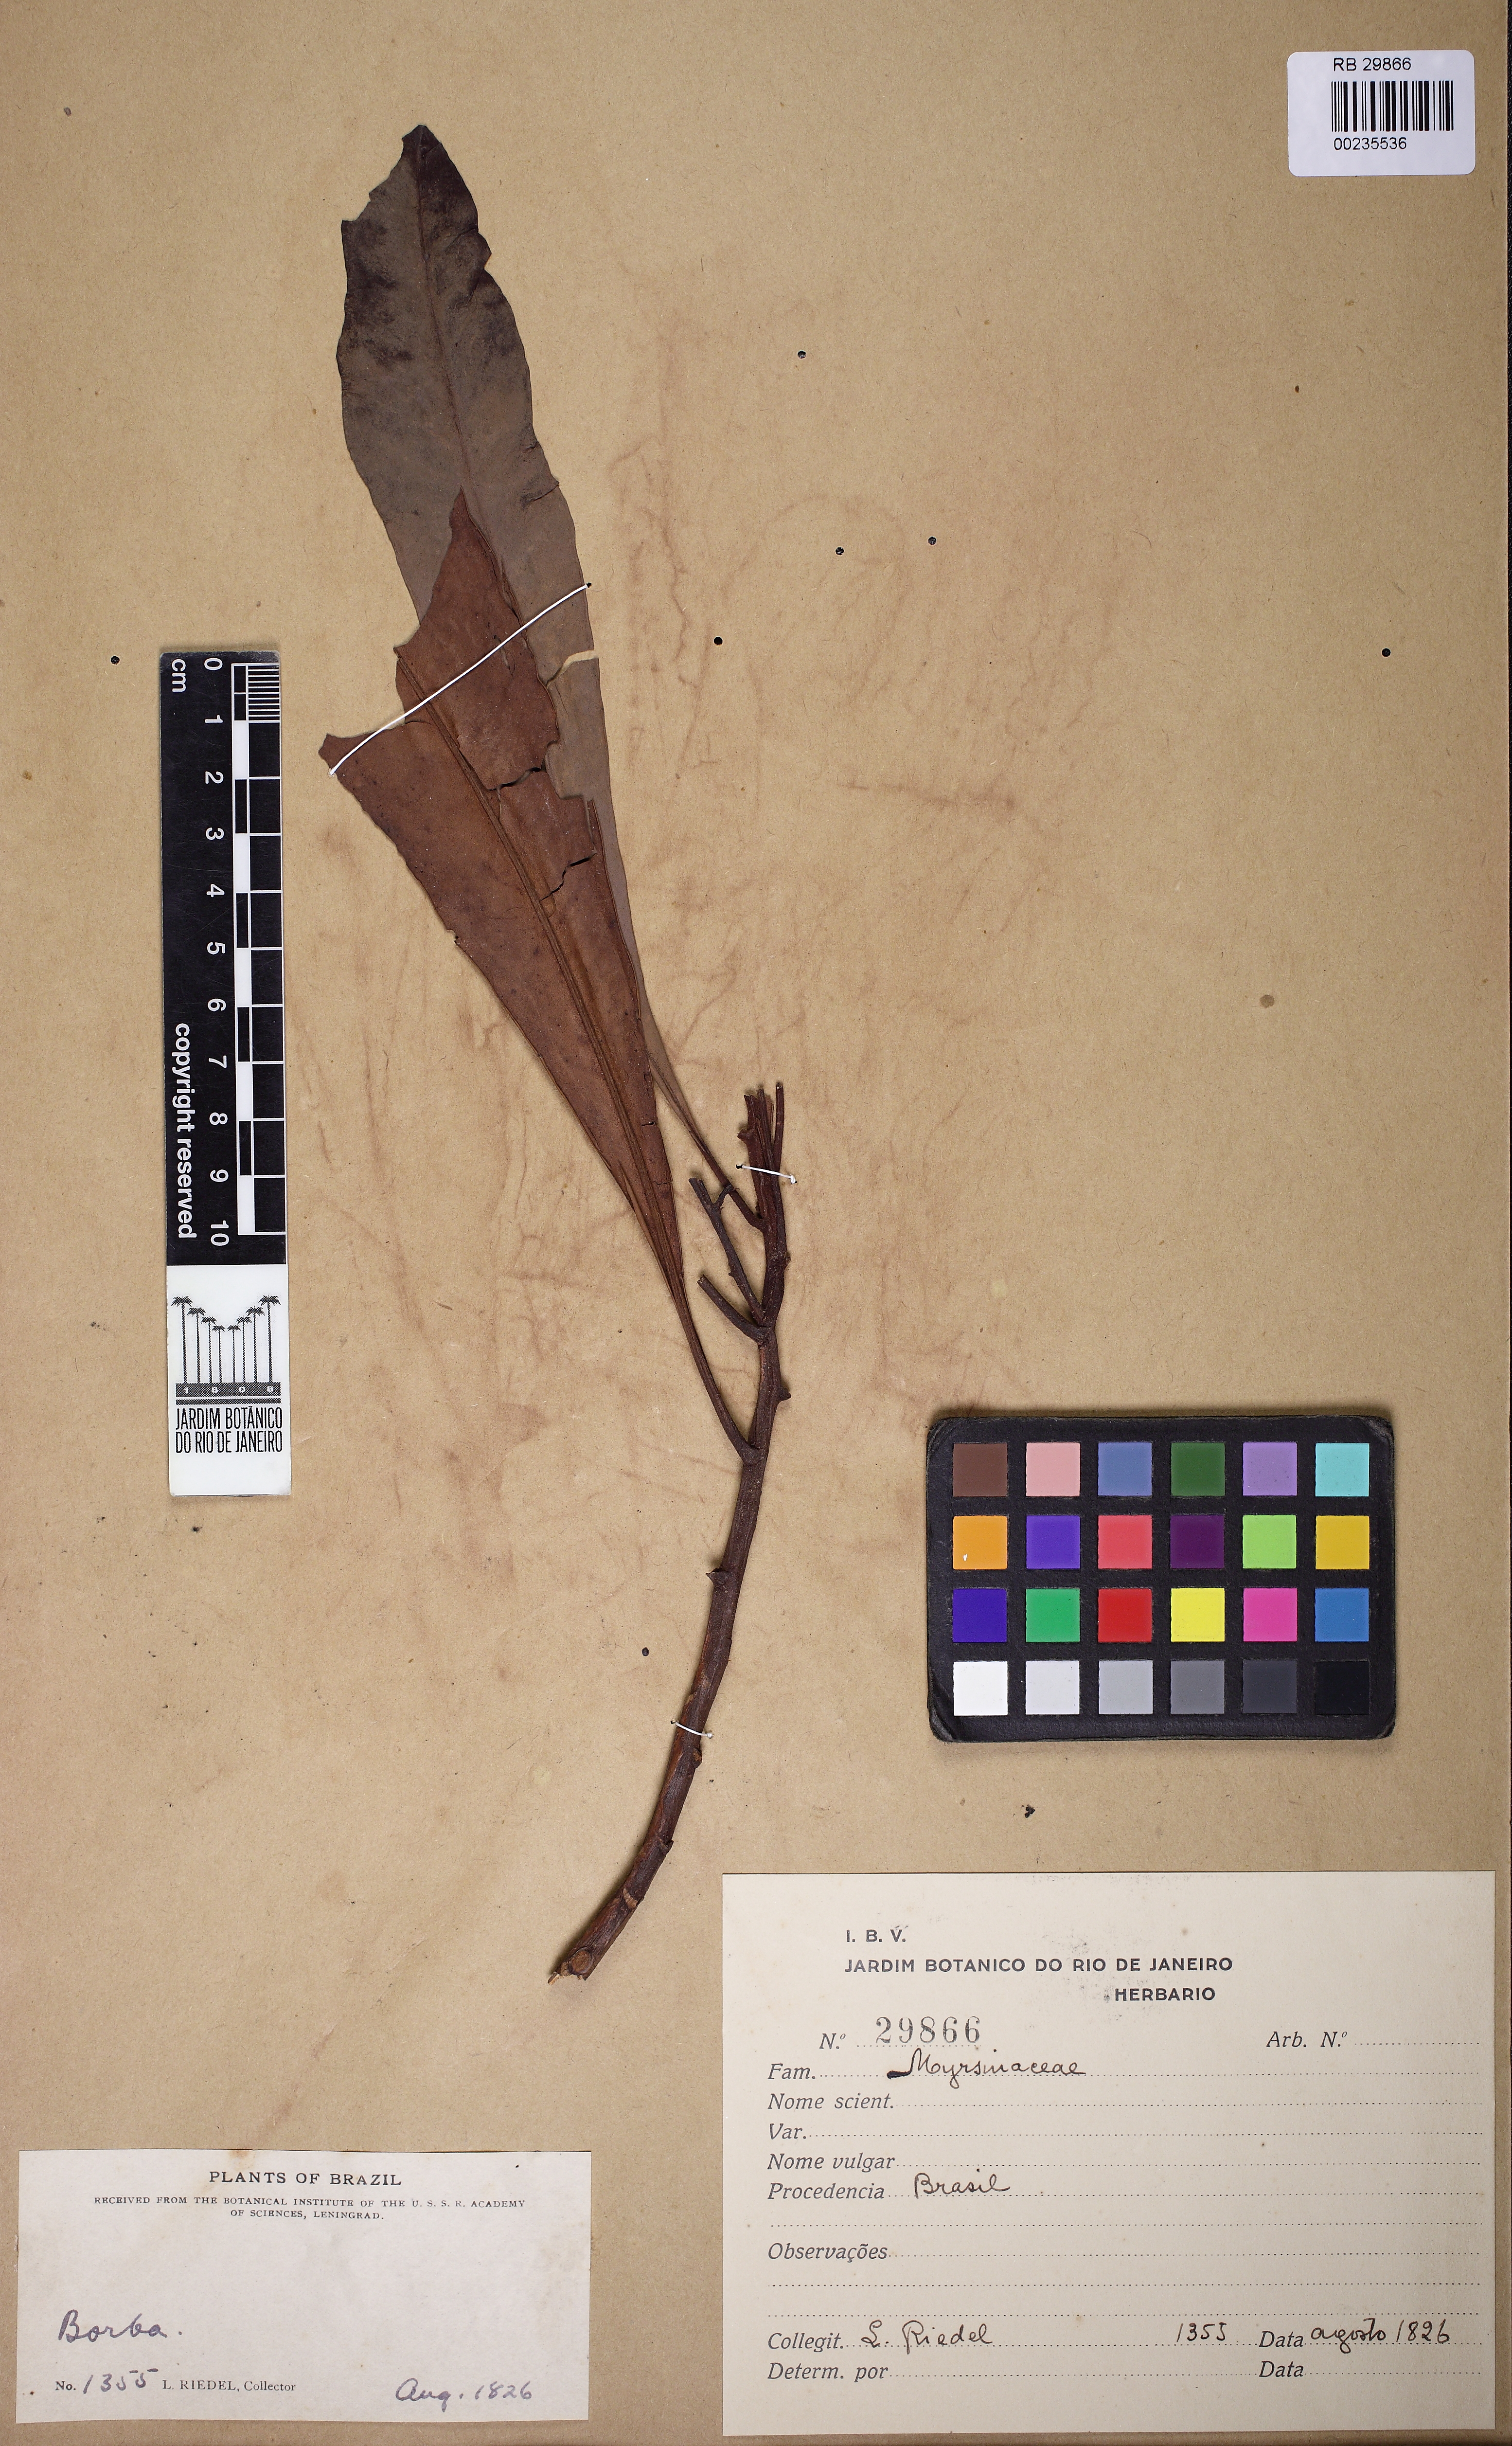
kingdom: Plantae
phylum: Tracheophyta
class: Magnoliopsida
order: Ericales
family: Primulaceae
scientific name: Primulaceae
